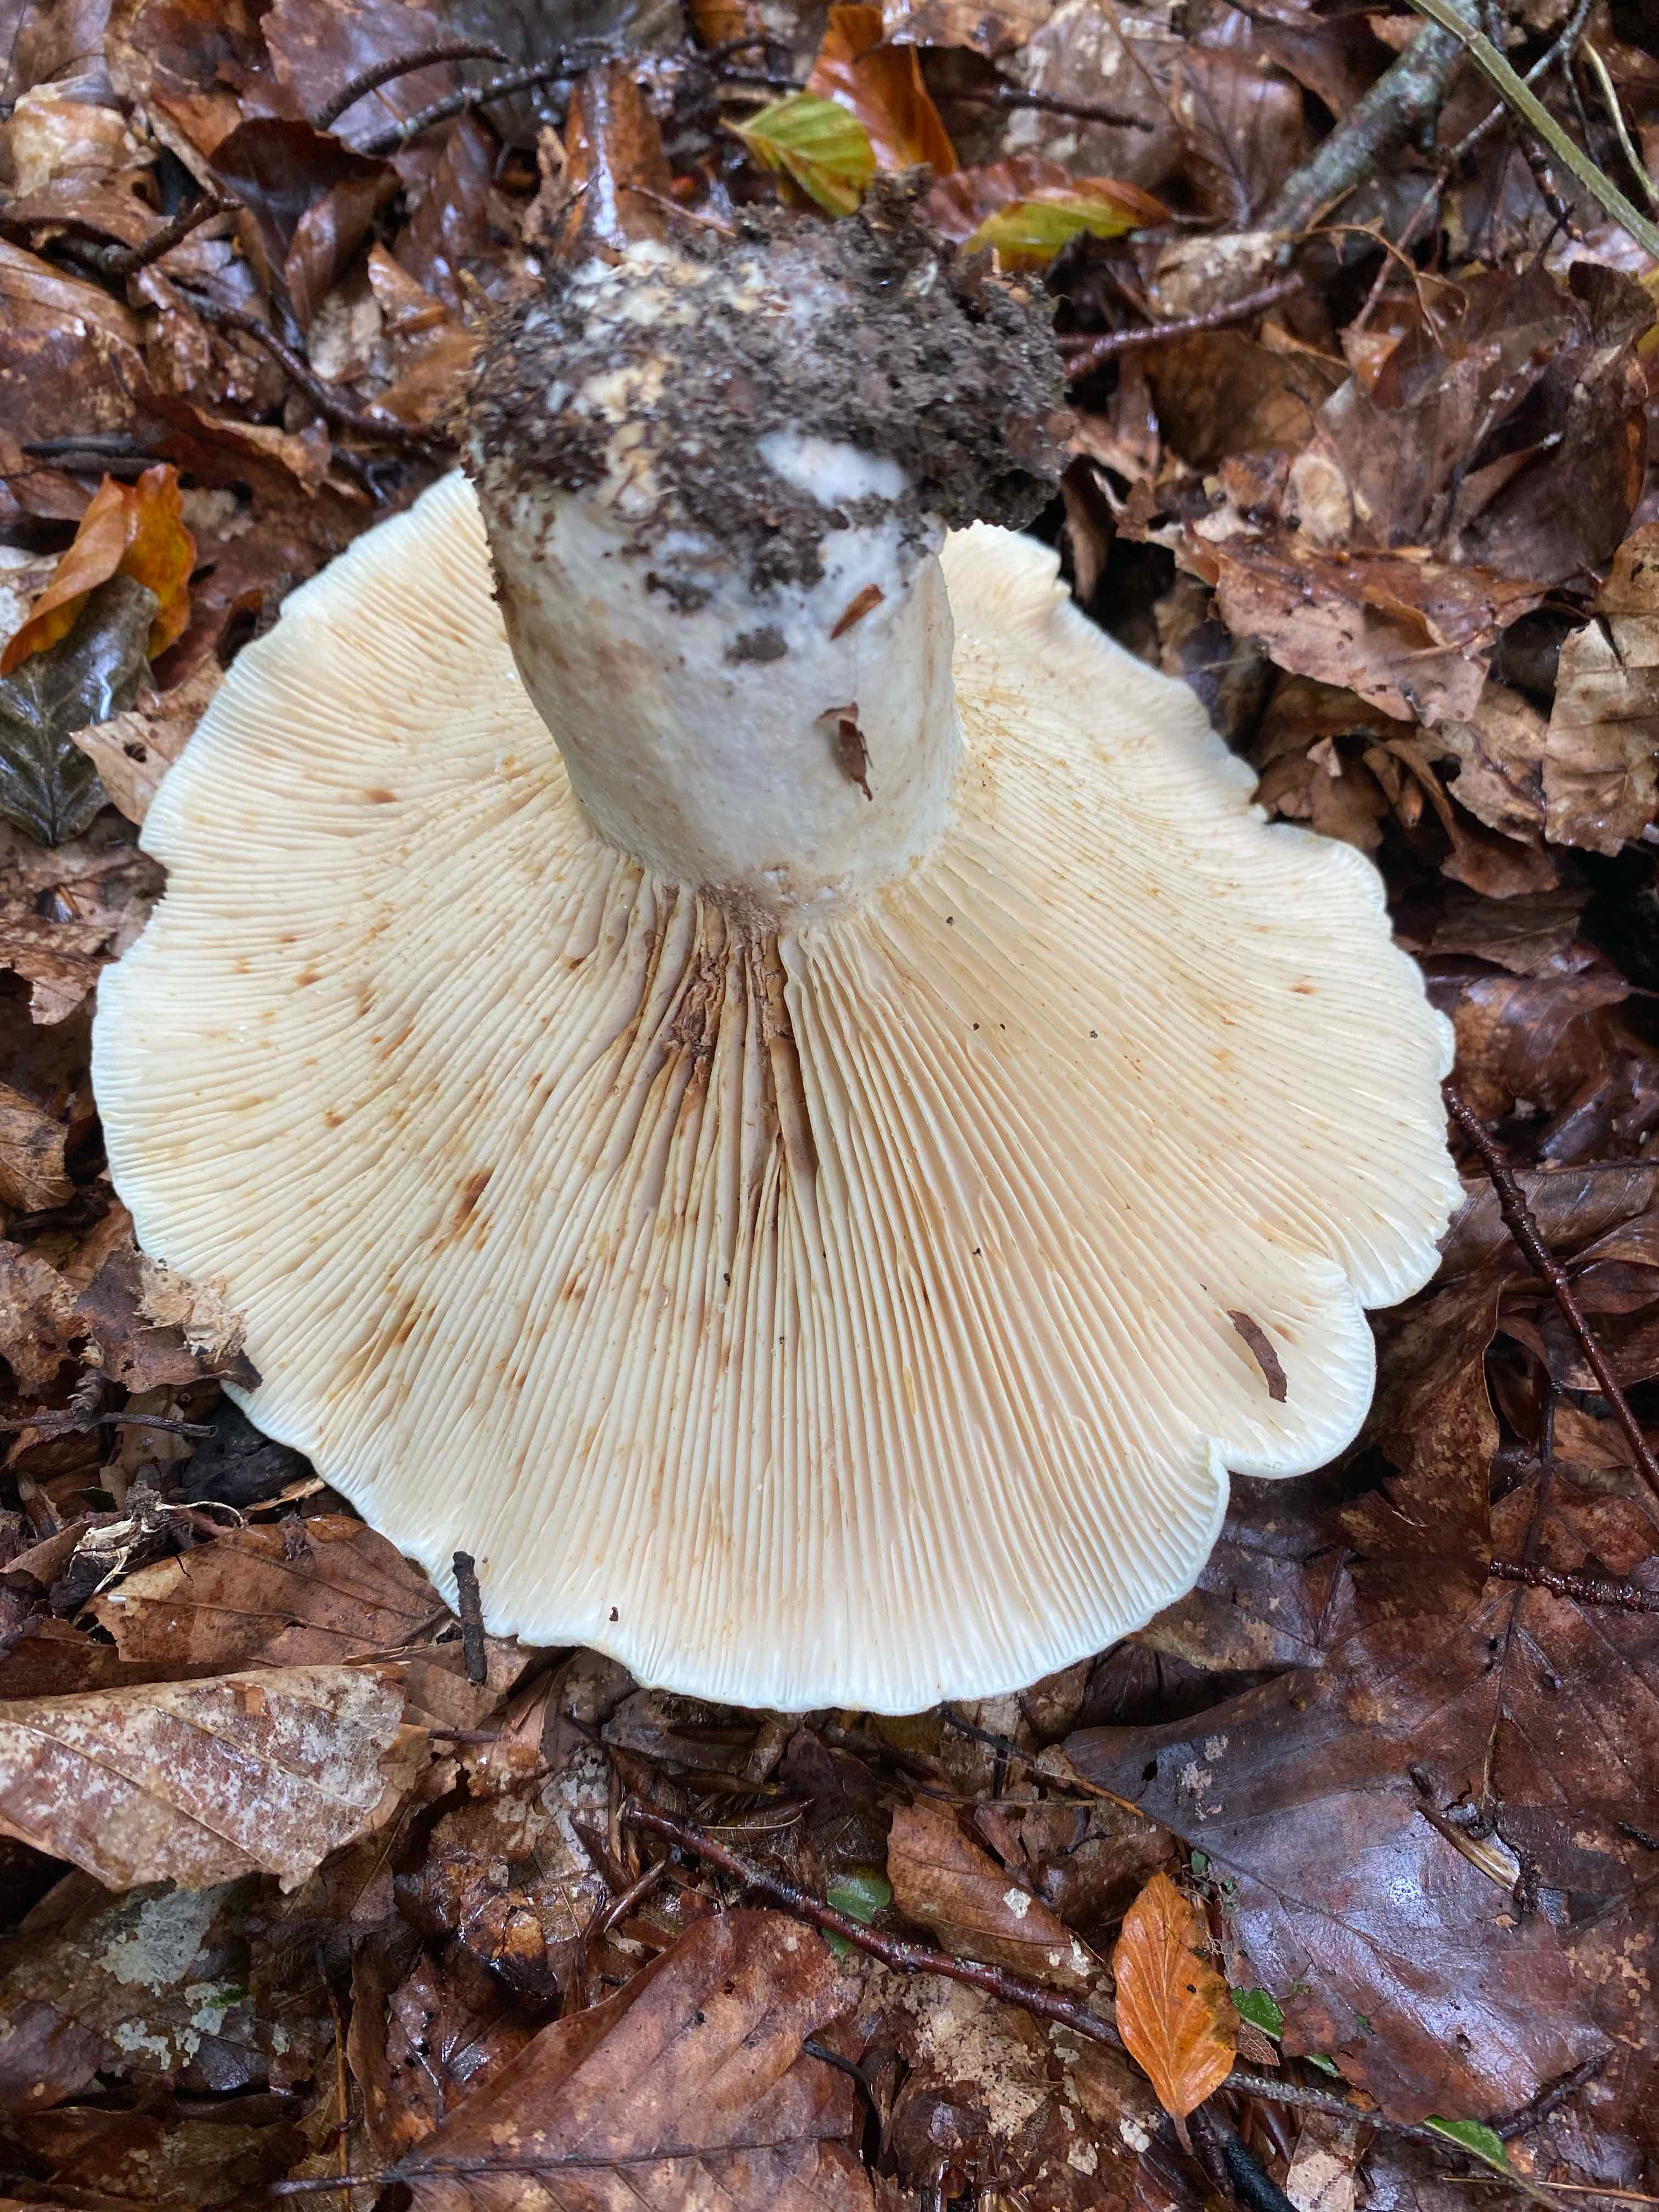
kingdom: Fungi
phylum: Basidiomycota
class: Agaricomycetes
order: Russulales
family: Russulaceae
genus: Lactifluus
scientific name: Lactifluus
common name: mælkehat
